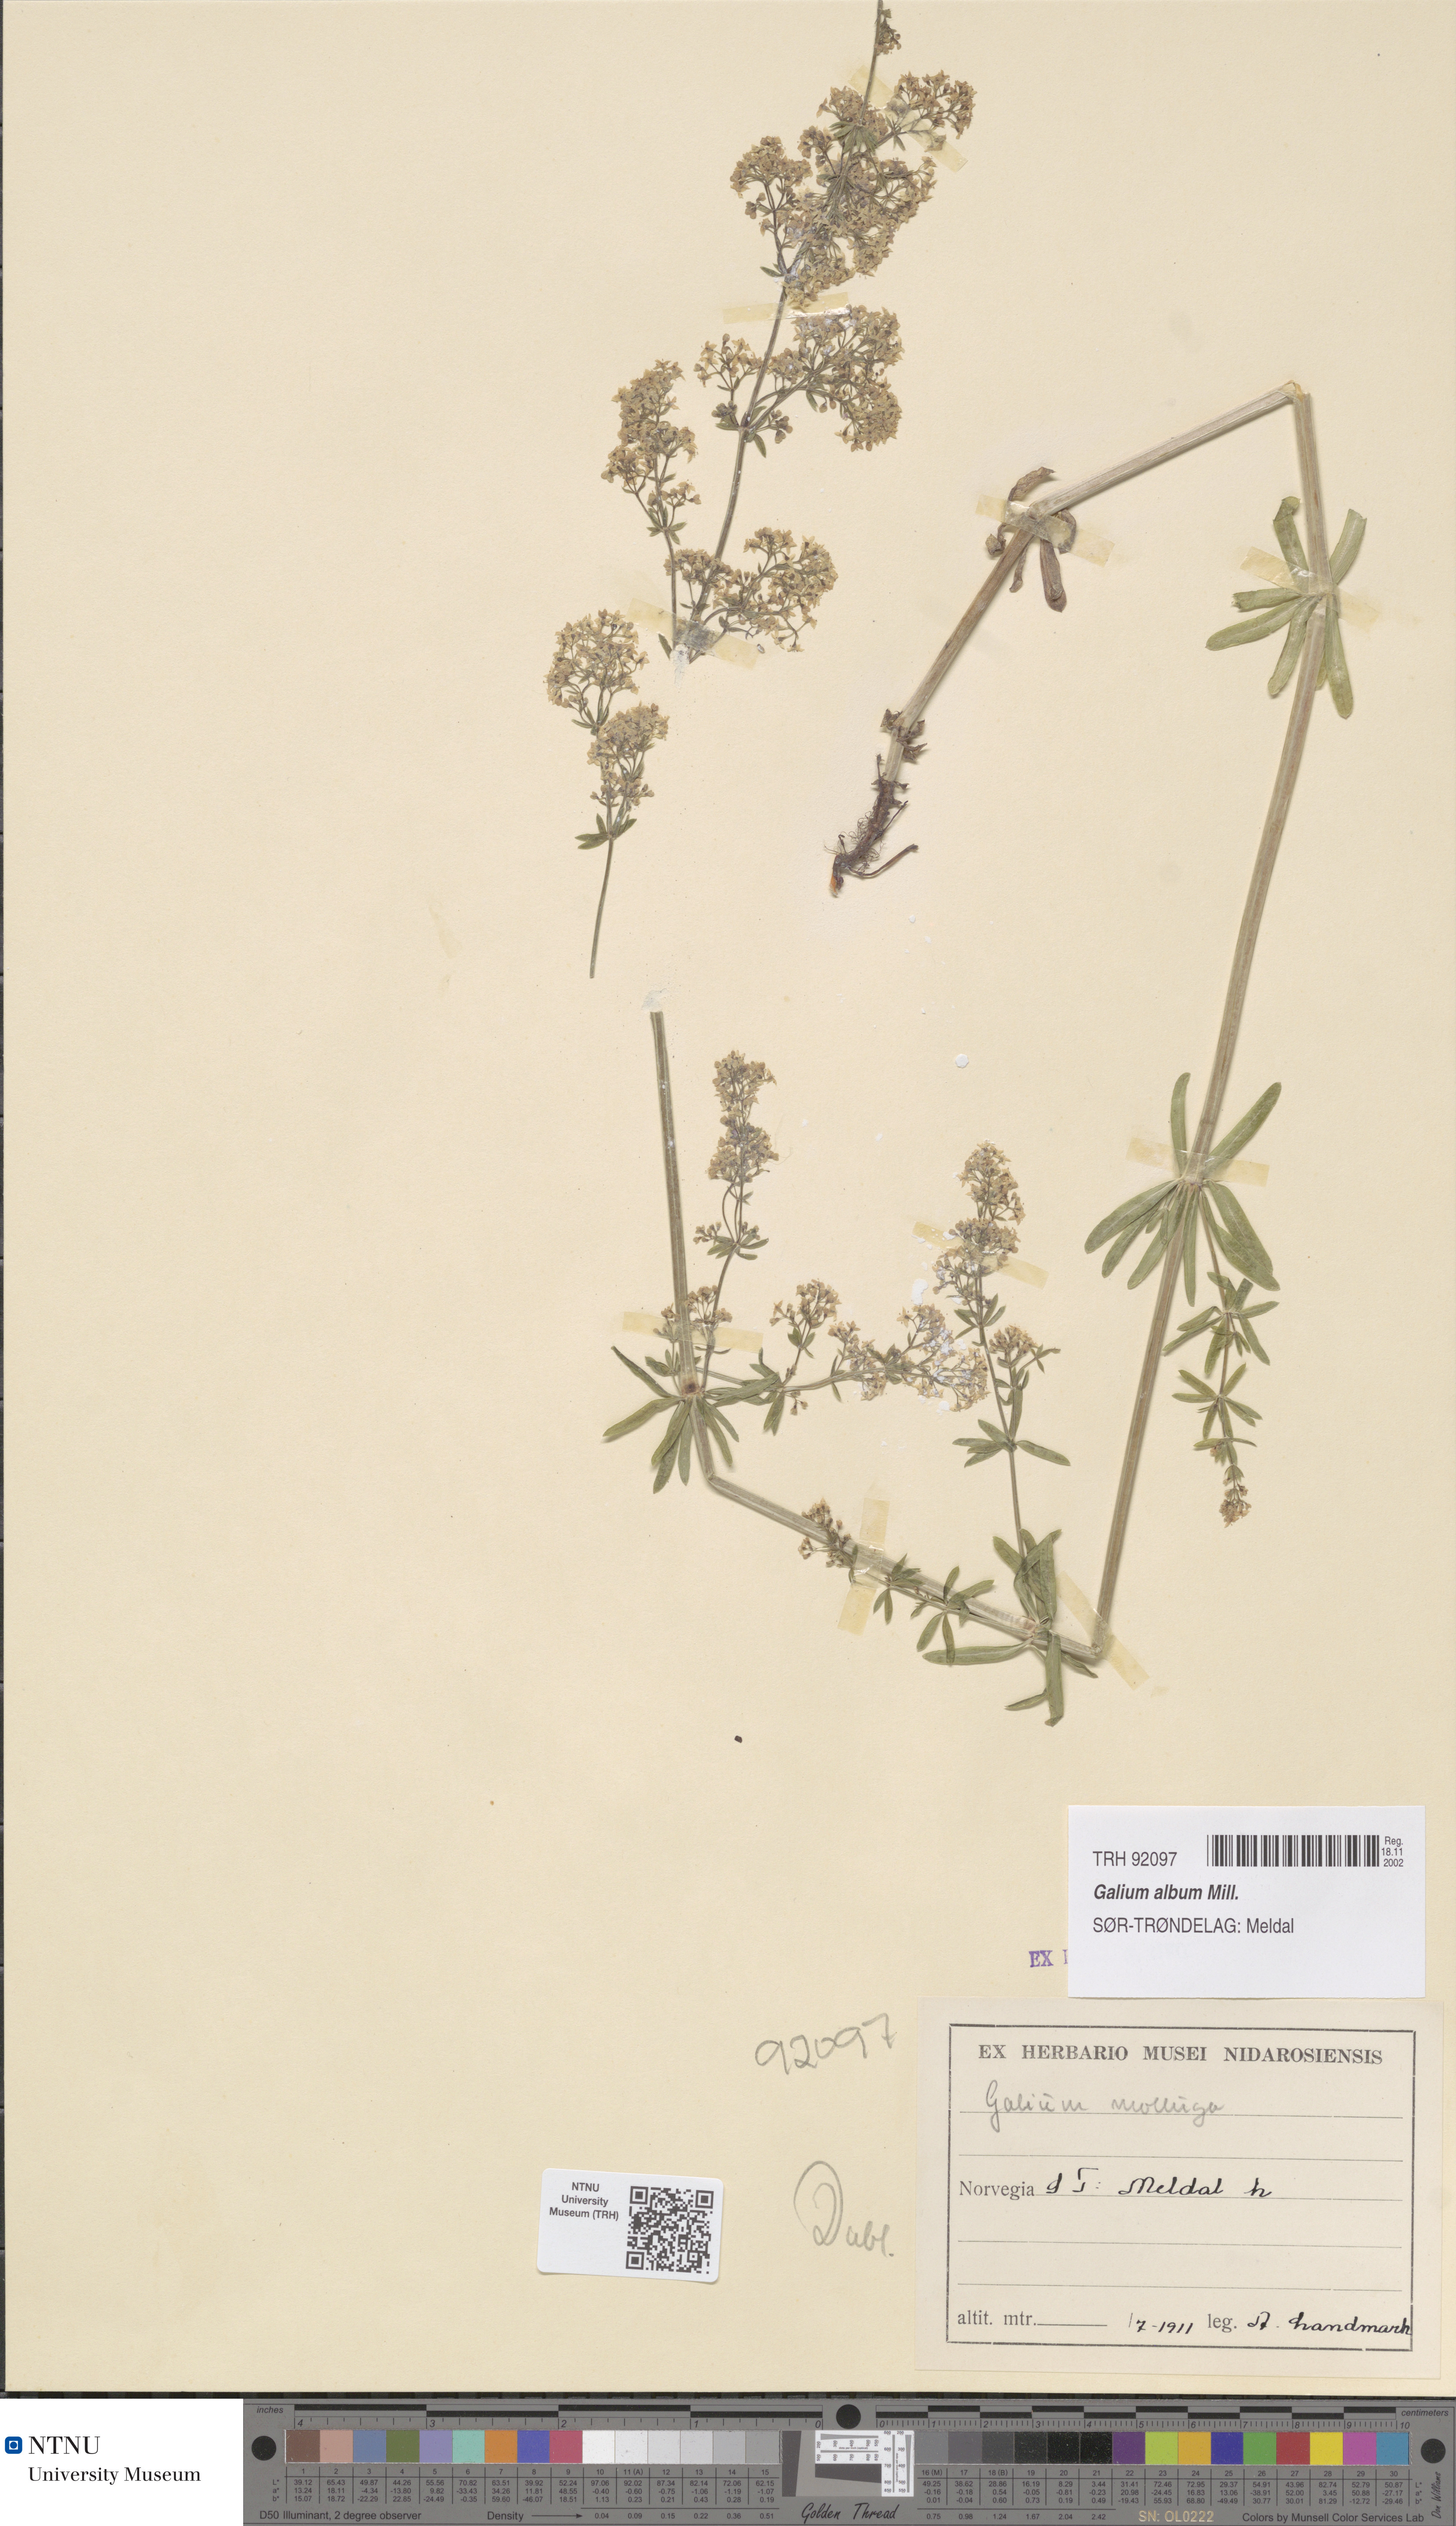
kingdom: Plantae
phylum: Tracheophyta
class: Magnoliopsida
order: Gentianales
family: Rubiaceae
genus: Galium
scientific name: Galium album
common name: White bedstraw
